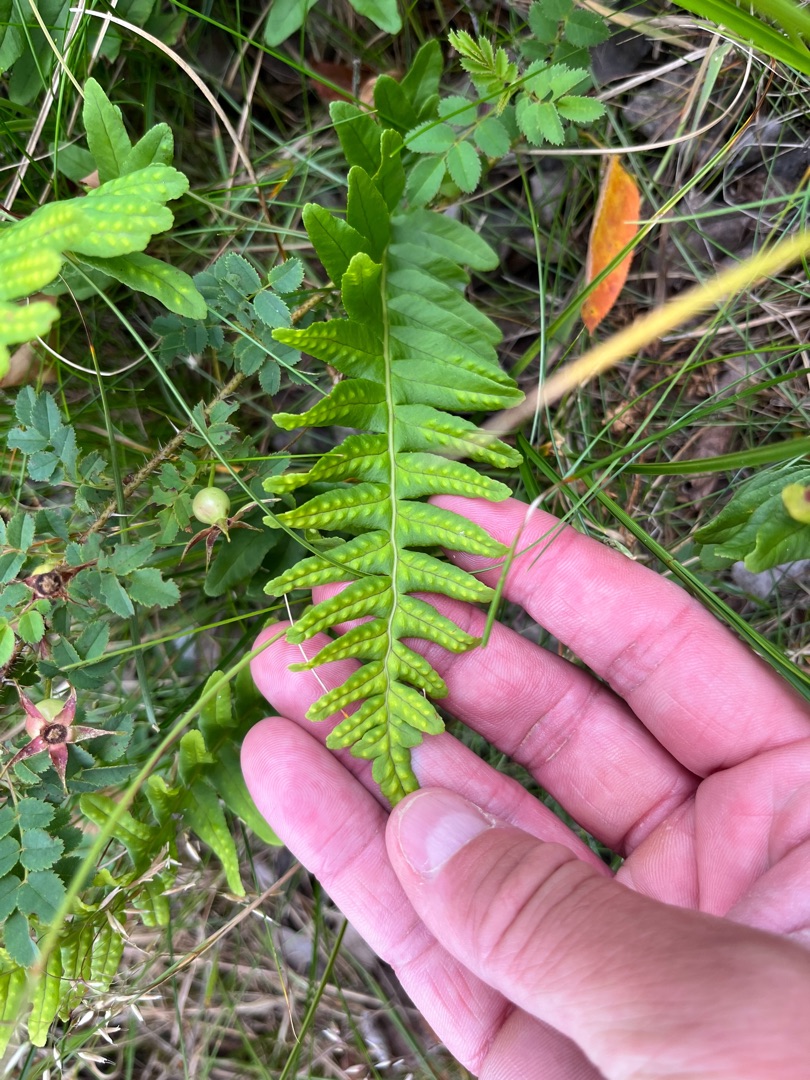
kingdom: Plantae
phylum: Tracheophyta
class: Polypodiopsida
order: Polypodiales
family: Polypodiaceae
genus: Polypodium
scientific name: Polypodium vulgare
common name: Almindelig engelsød
